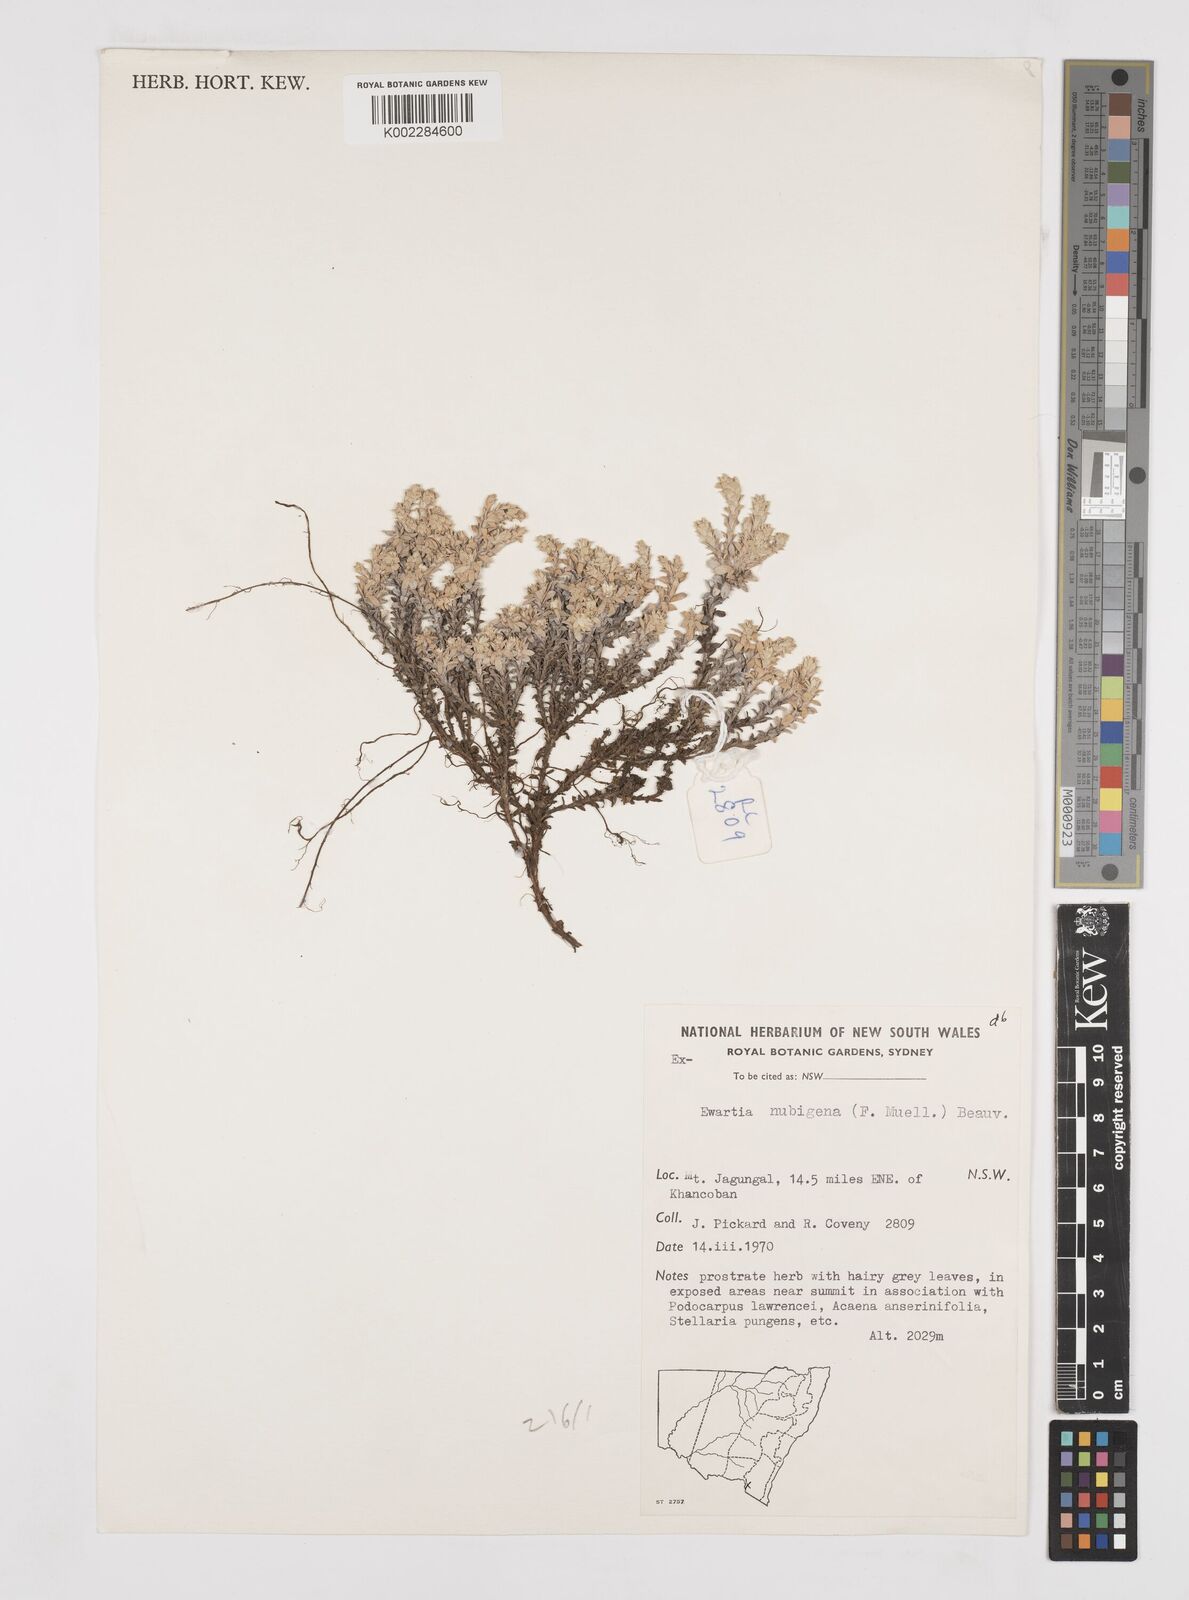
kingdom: Plantae
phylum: Tracheophyta
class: Magnoliopsida
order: Asterales
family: Asteraceae
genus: Ewartia
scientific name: Ewartia nubigena
